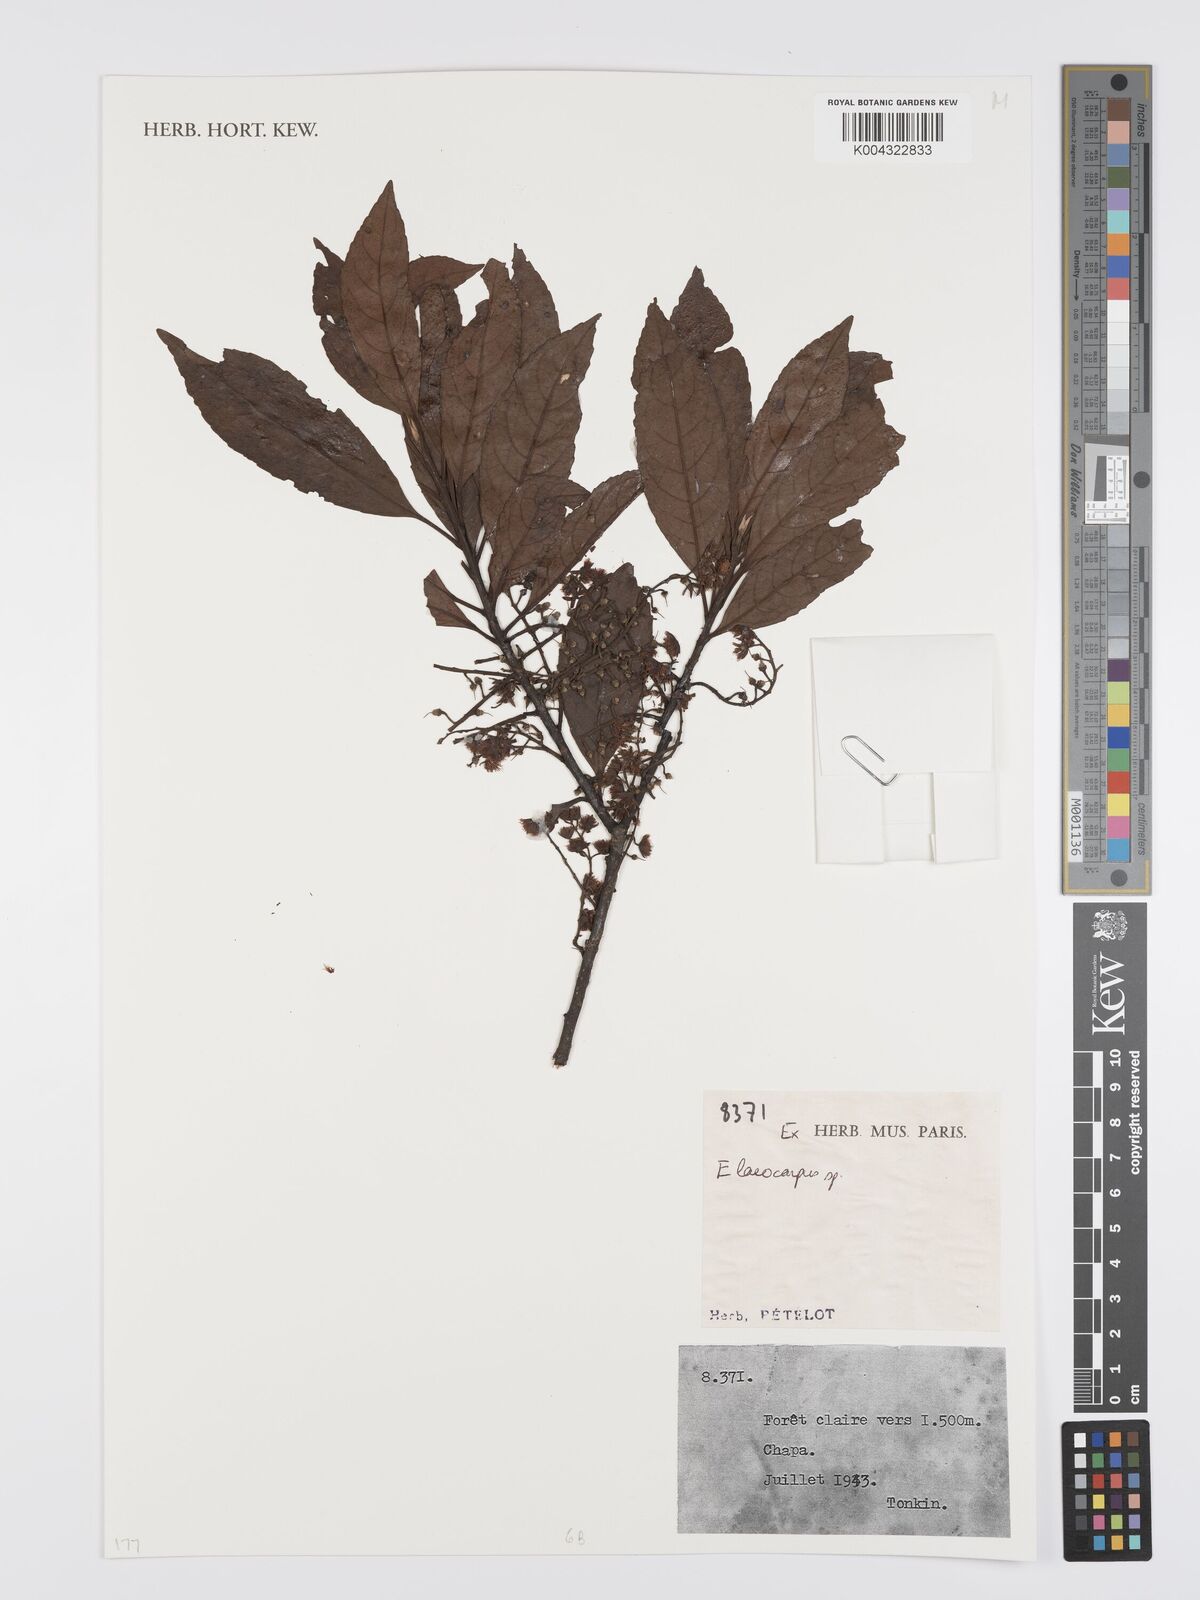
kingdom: Plantae
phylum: Tracheophyta
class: Magnoliopsida
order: Oxalidales
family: Elaeocarpaceae
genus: Elaeocarpus
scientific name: Elaeocarpus
